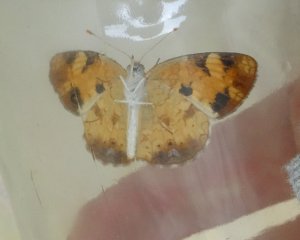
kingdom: Animalia
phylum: Arthropoda
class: Insecta
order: Lepidoptera
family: Nymphalidae
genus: Phyciodes
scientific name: Phyciodes tharos
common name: Northern Crescent
